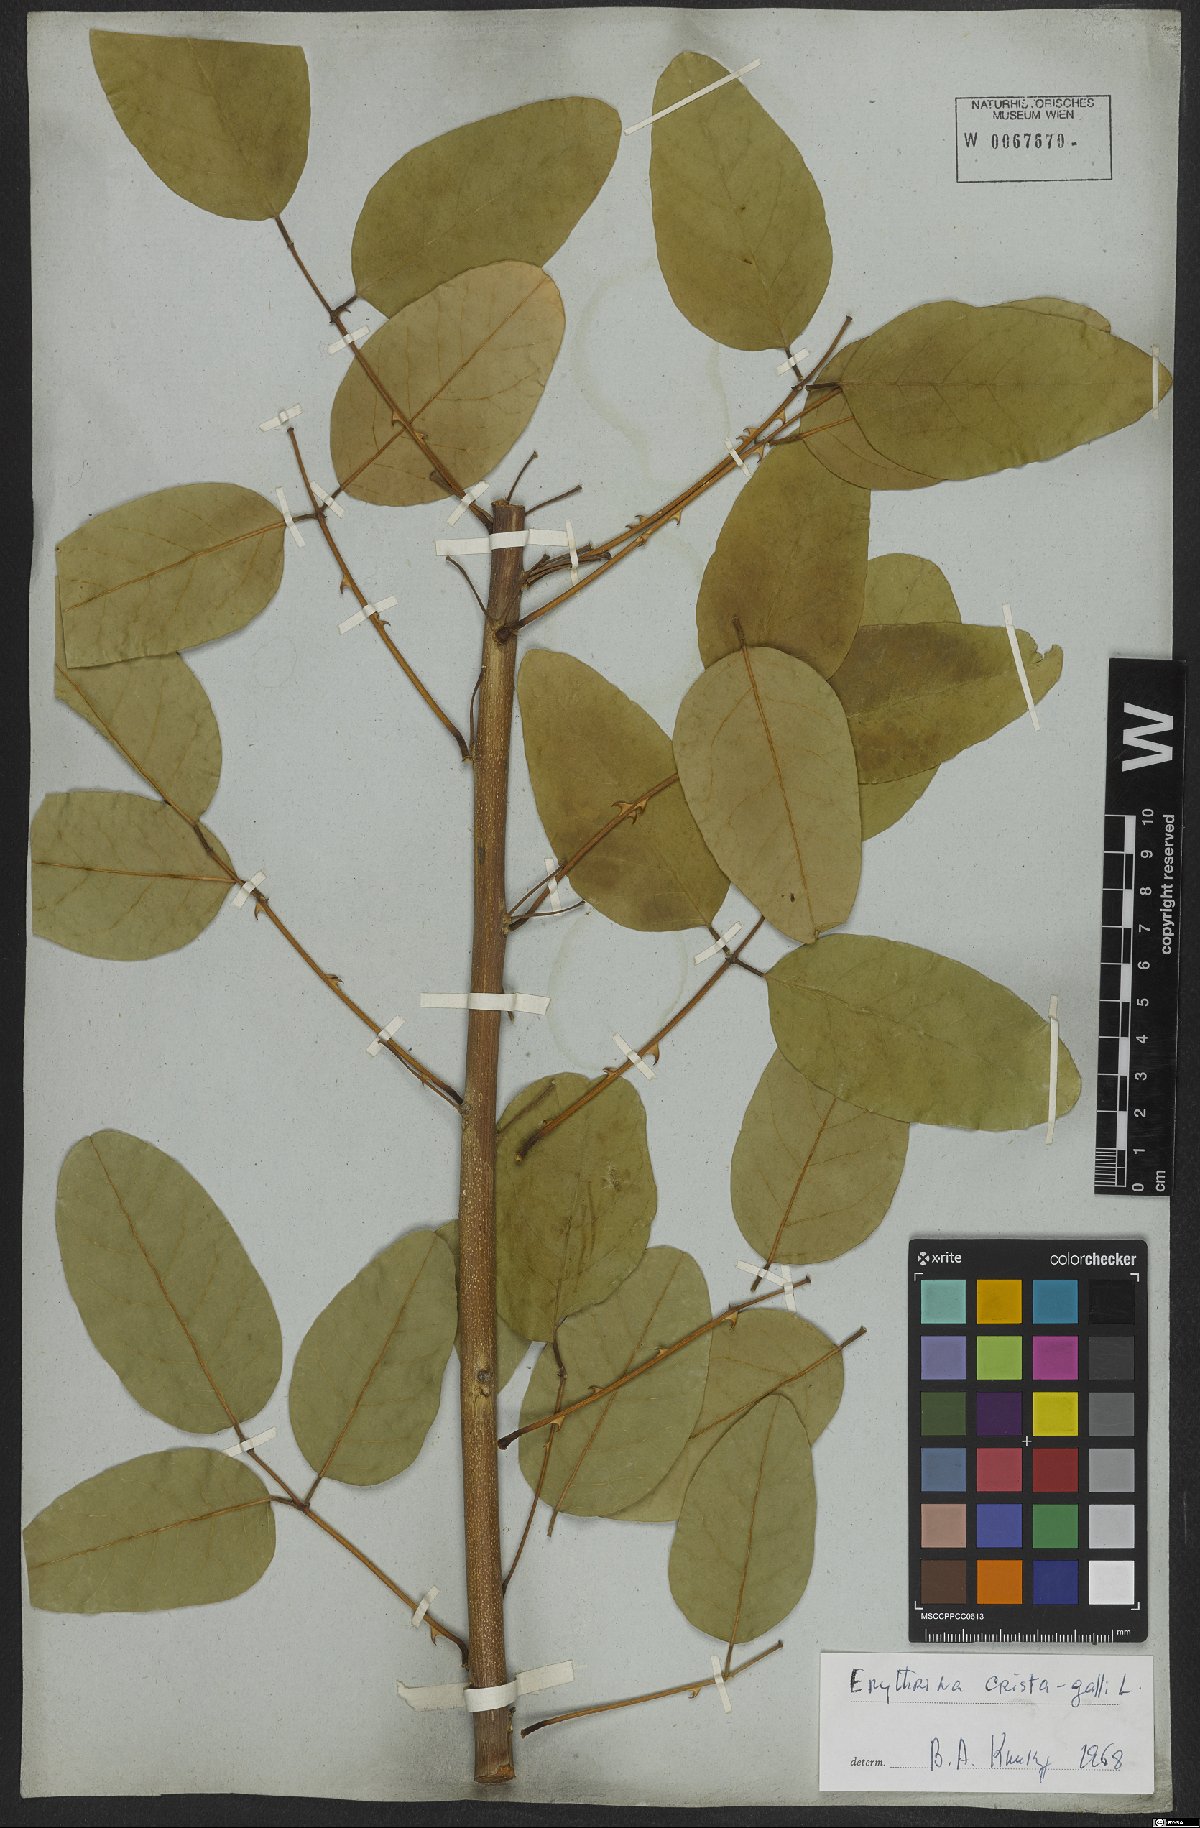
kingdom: Plantae
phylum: Tracheophyta
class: Magnoliopsida
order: Fabales
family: Fabaceae
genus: Erythrina
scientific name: Erythrina crista-galli
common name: Cockspur coral tree
